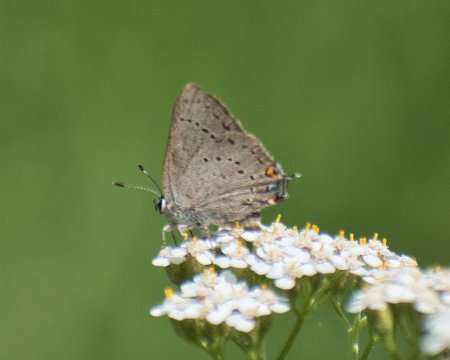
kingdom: Animalia
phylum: Arthropoda
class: Insecta
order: Lepidoptera
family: Lycaenidae
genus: Strymon
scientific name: Strymon sylvinus
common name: Sylvan Hairstreak
